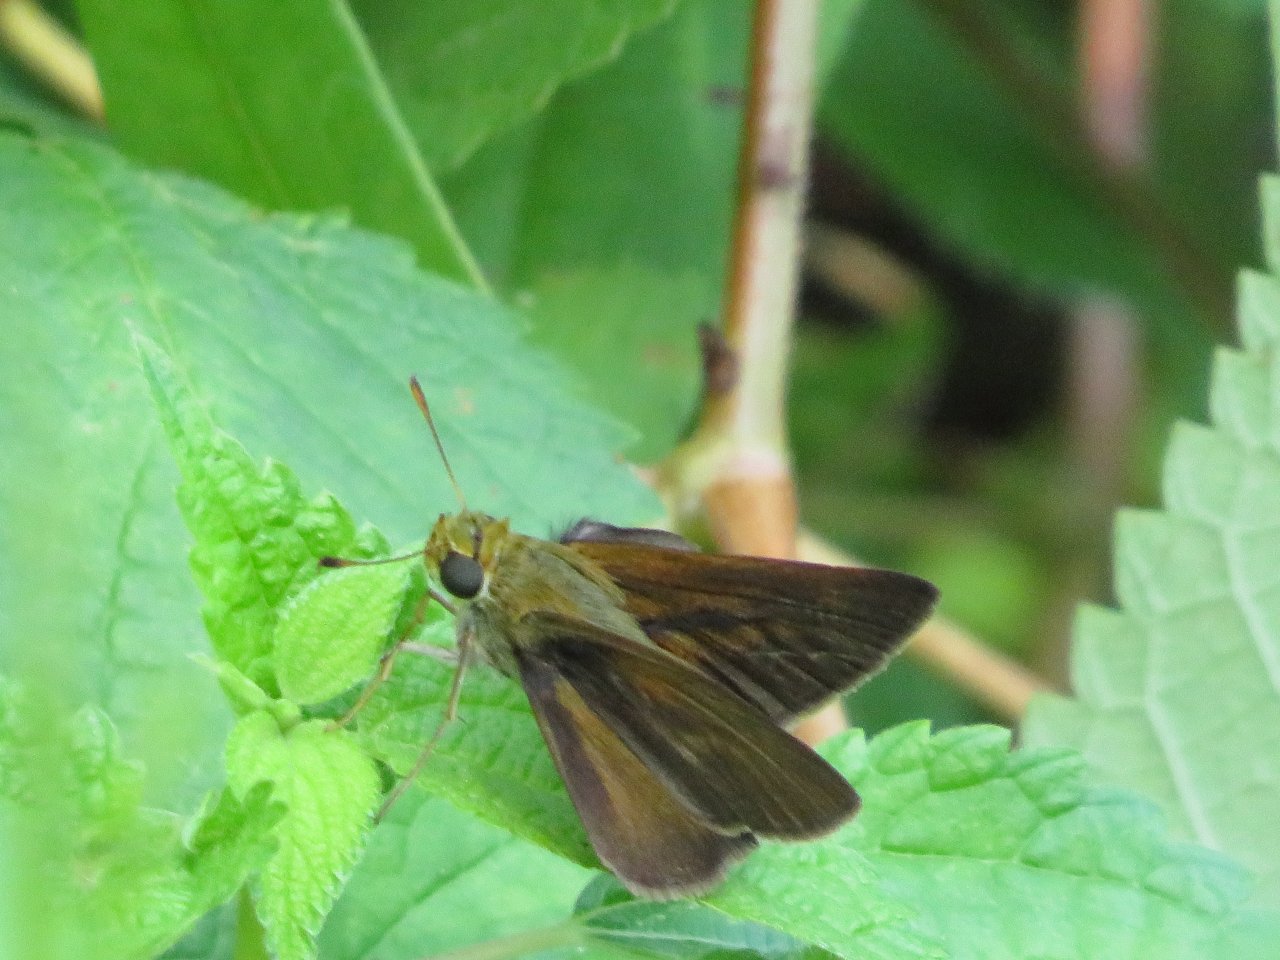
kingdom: Animalia
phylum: Arthropoda
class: Insecta
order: Lepidoptera
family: Hesperiidae
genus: Euphyes
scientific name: Euphyes vestris
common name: Dun Skipper
